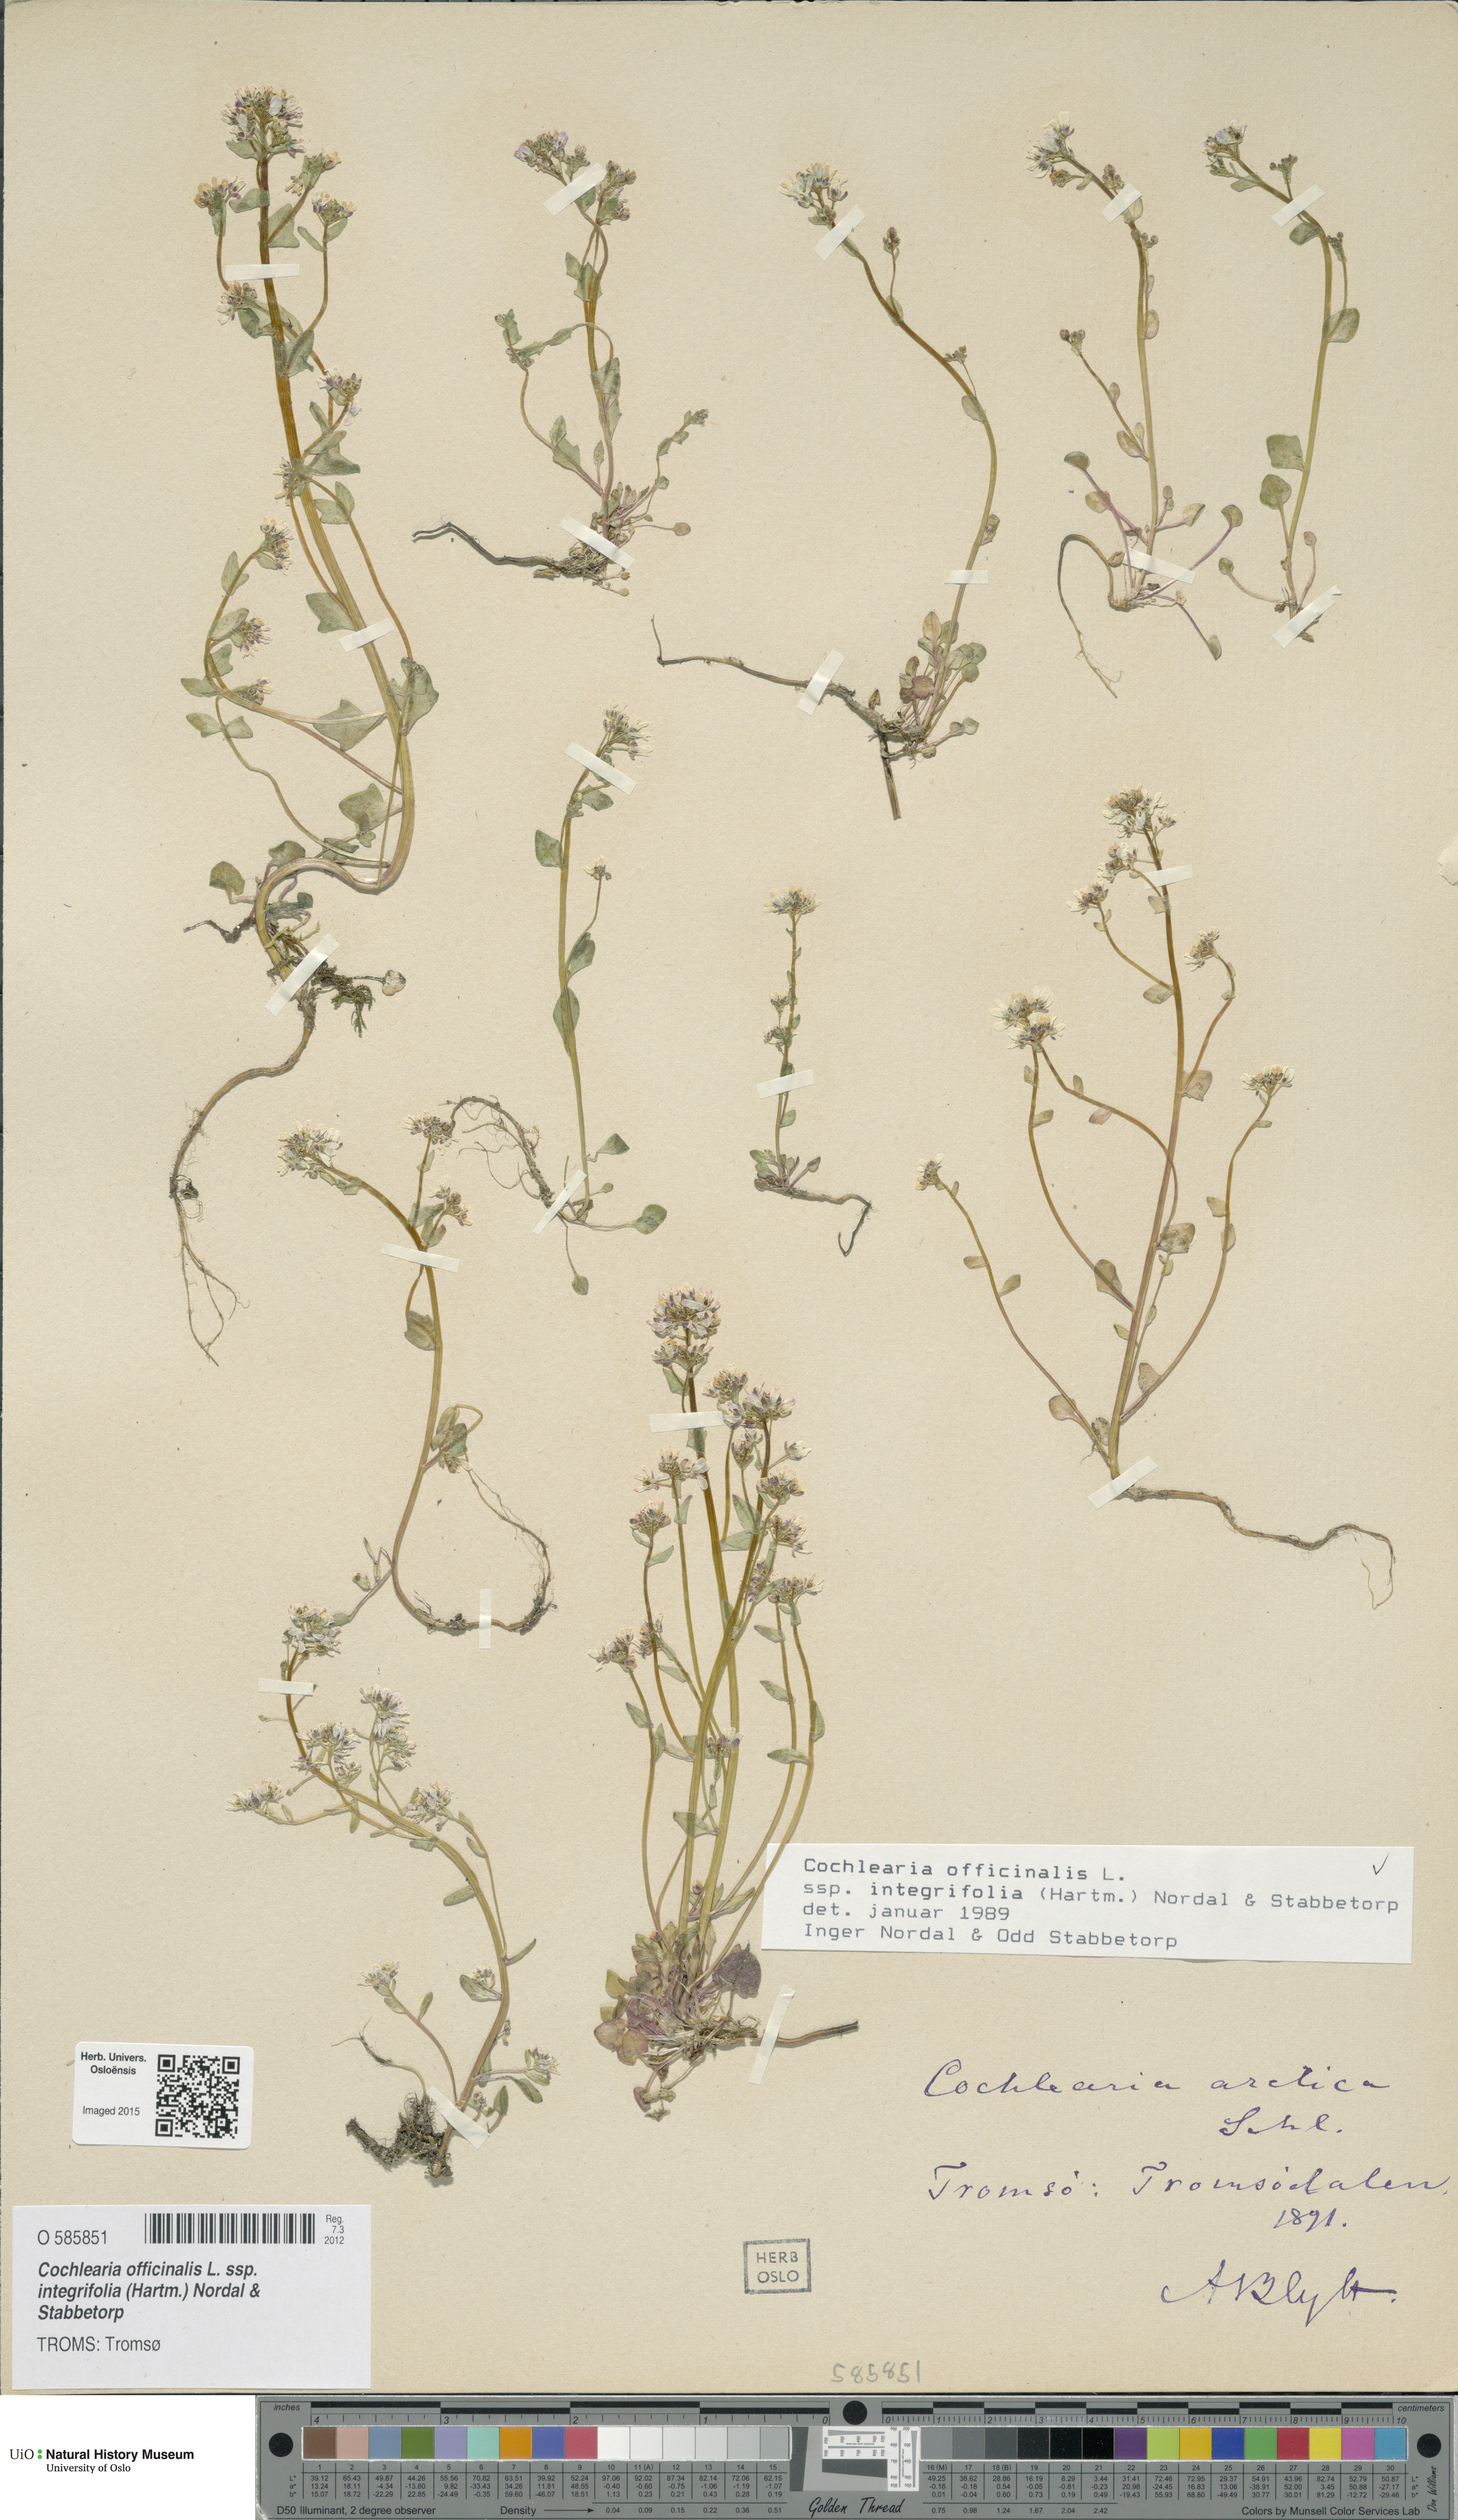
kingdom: Plantae
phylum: Tracheophyta
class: Magnoliopsida
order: Brassicales
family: Brassicaceae
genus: Cochlearia
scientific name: Cochlearia officinalis
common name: Scurvy-grass
